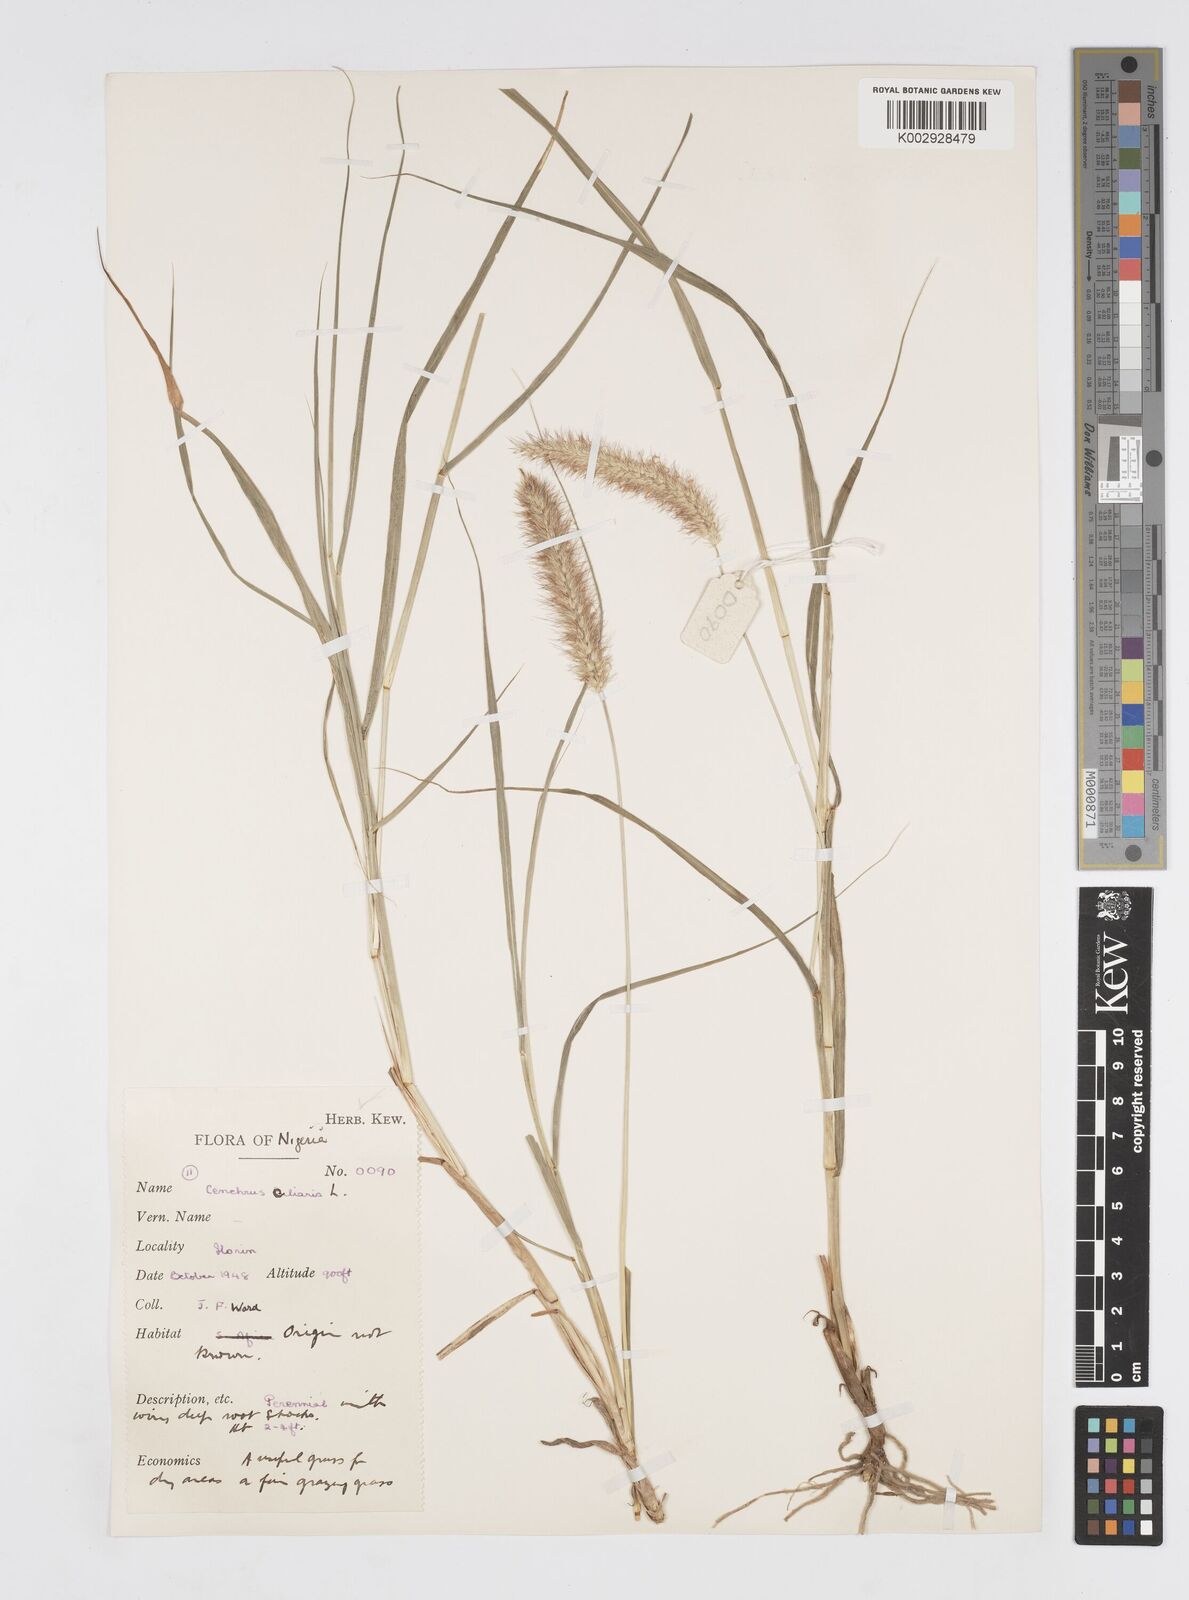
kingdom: Plantae
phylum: Tracheophyta
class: Liliopsida
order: Poales
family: Poaceae
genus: Cenchrus
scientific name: Cenchrus ciliaris
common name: Buffelgrass
